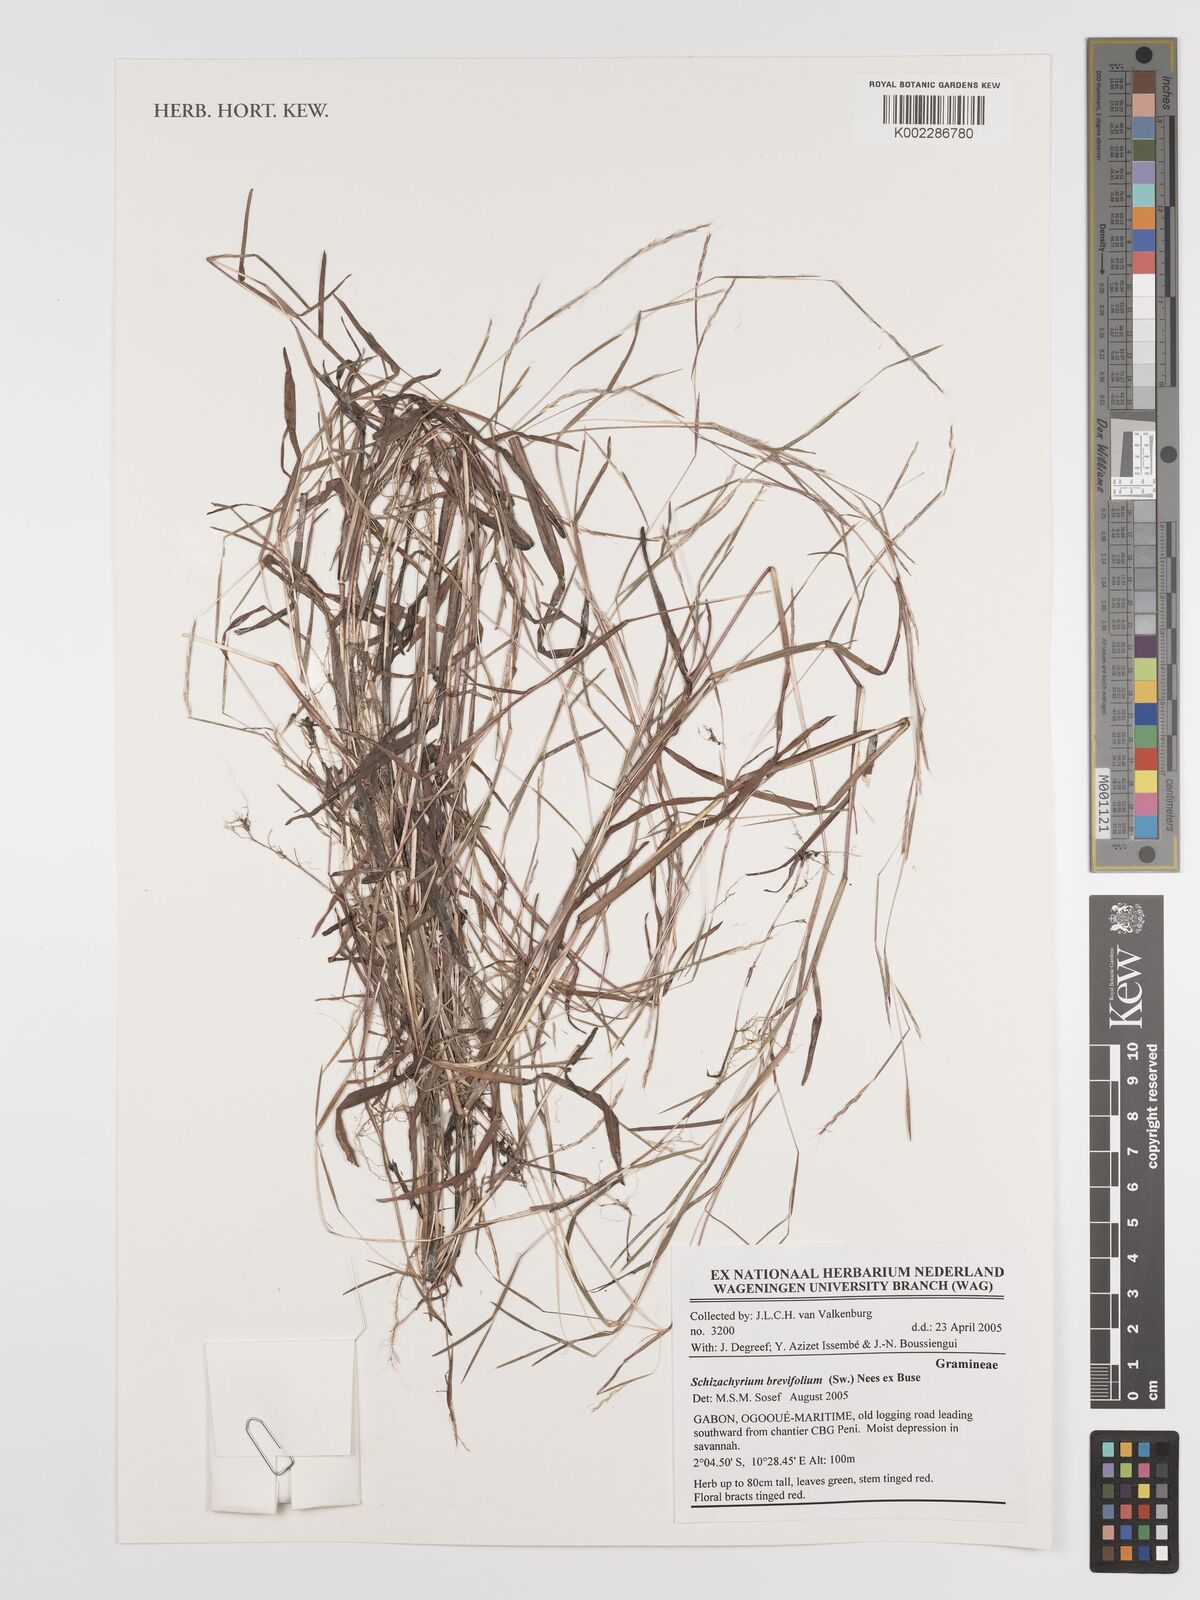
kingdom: Plantae
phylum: Tracheophyta
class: Liliopsida
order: Poales
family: Poaceae
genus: Schizachyrium
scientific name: Schizachyrium brevifolium
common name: Serillo dulce
